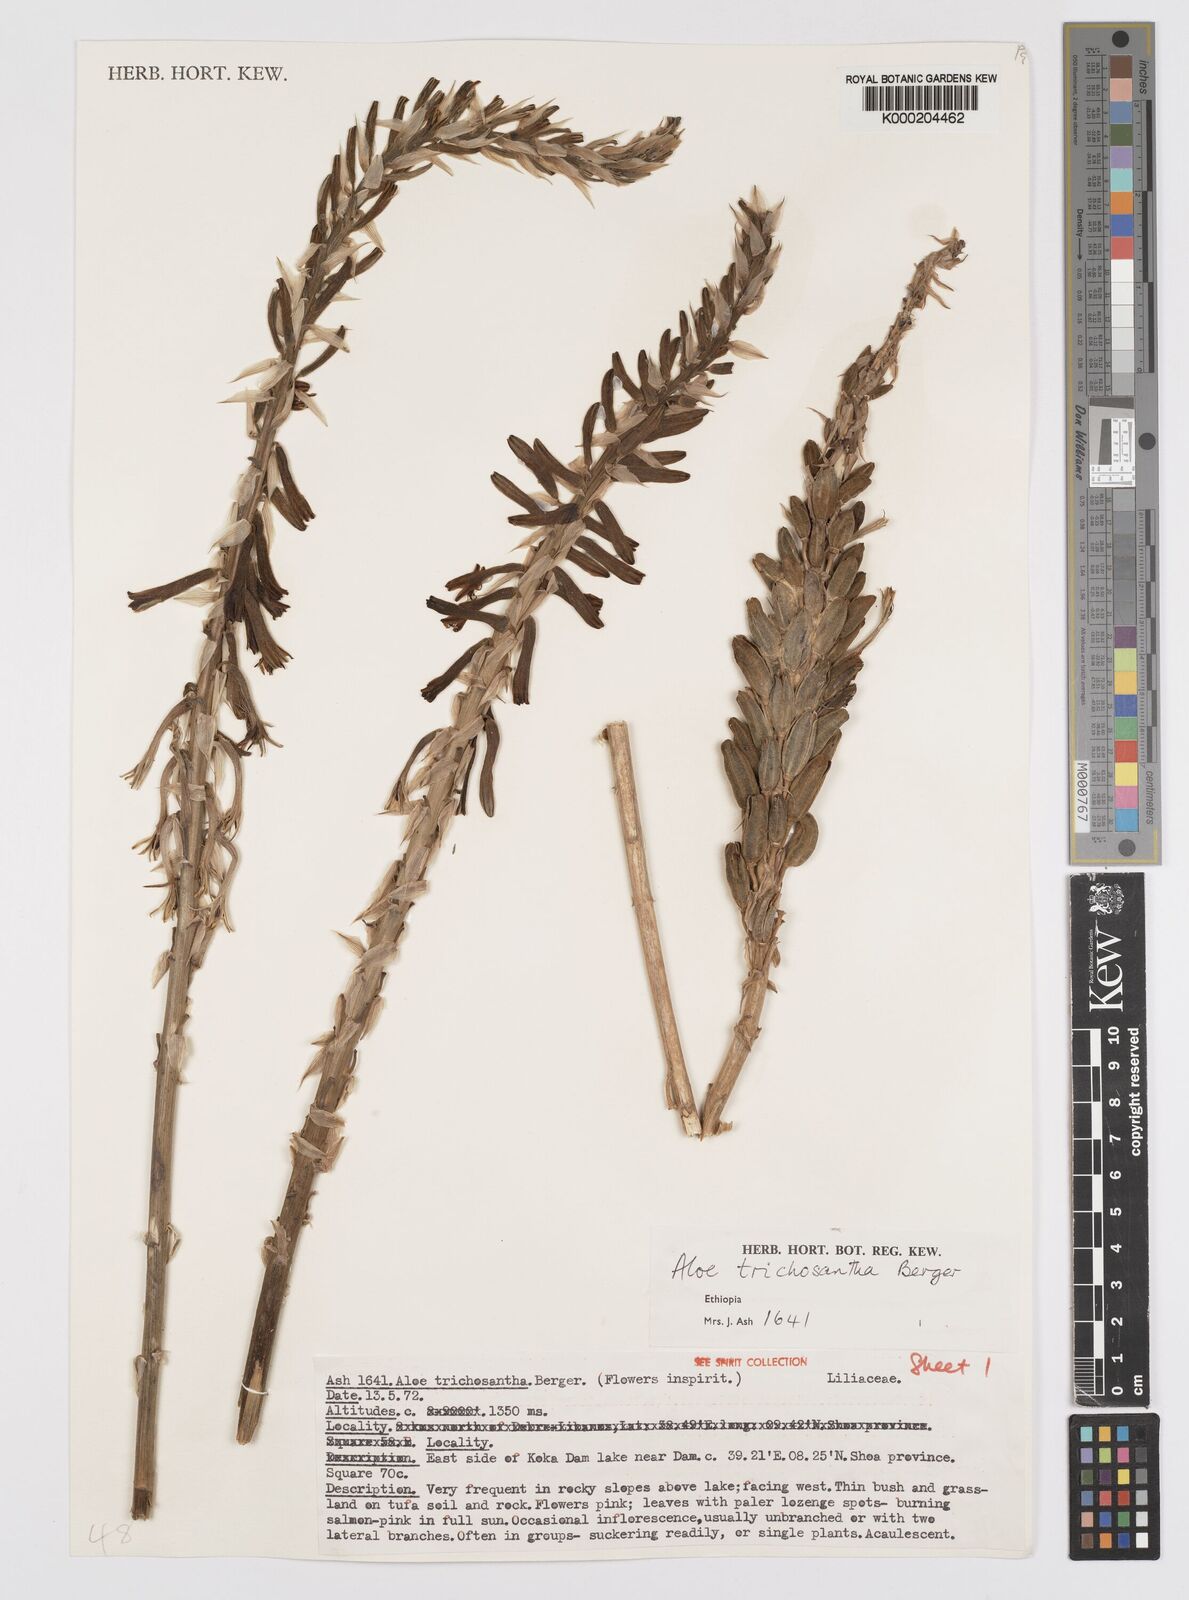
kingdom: Plantae
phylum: Tracheophyta
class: Liliopsida
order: Asparagales
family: Asphodelaceae
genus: Aloe
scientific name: Aloe trichosantha
